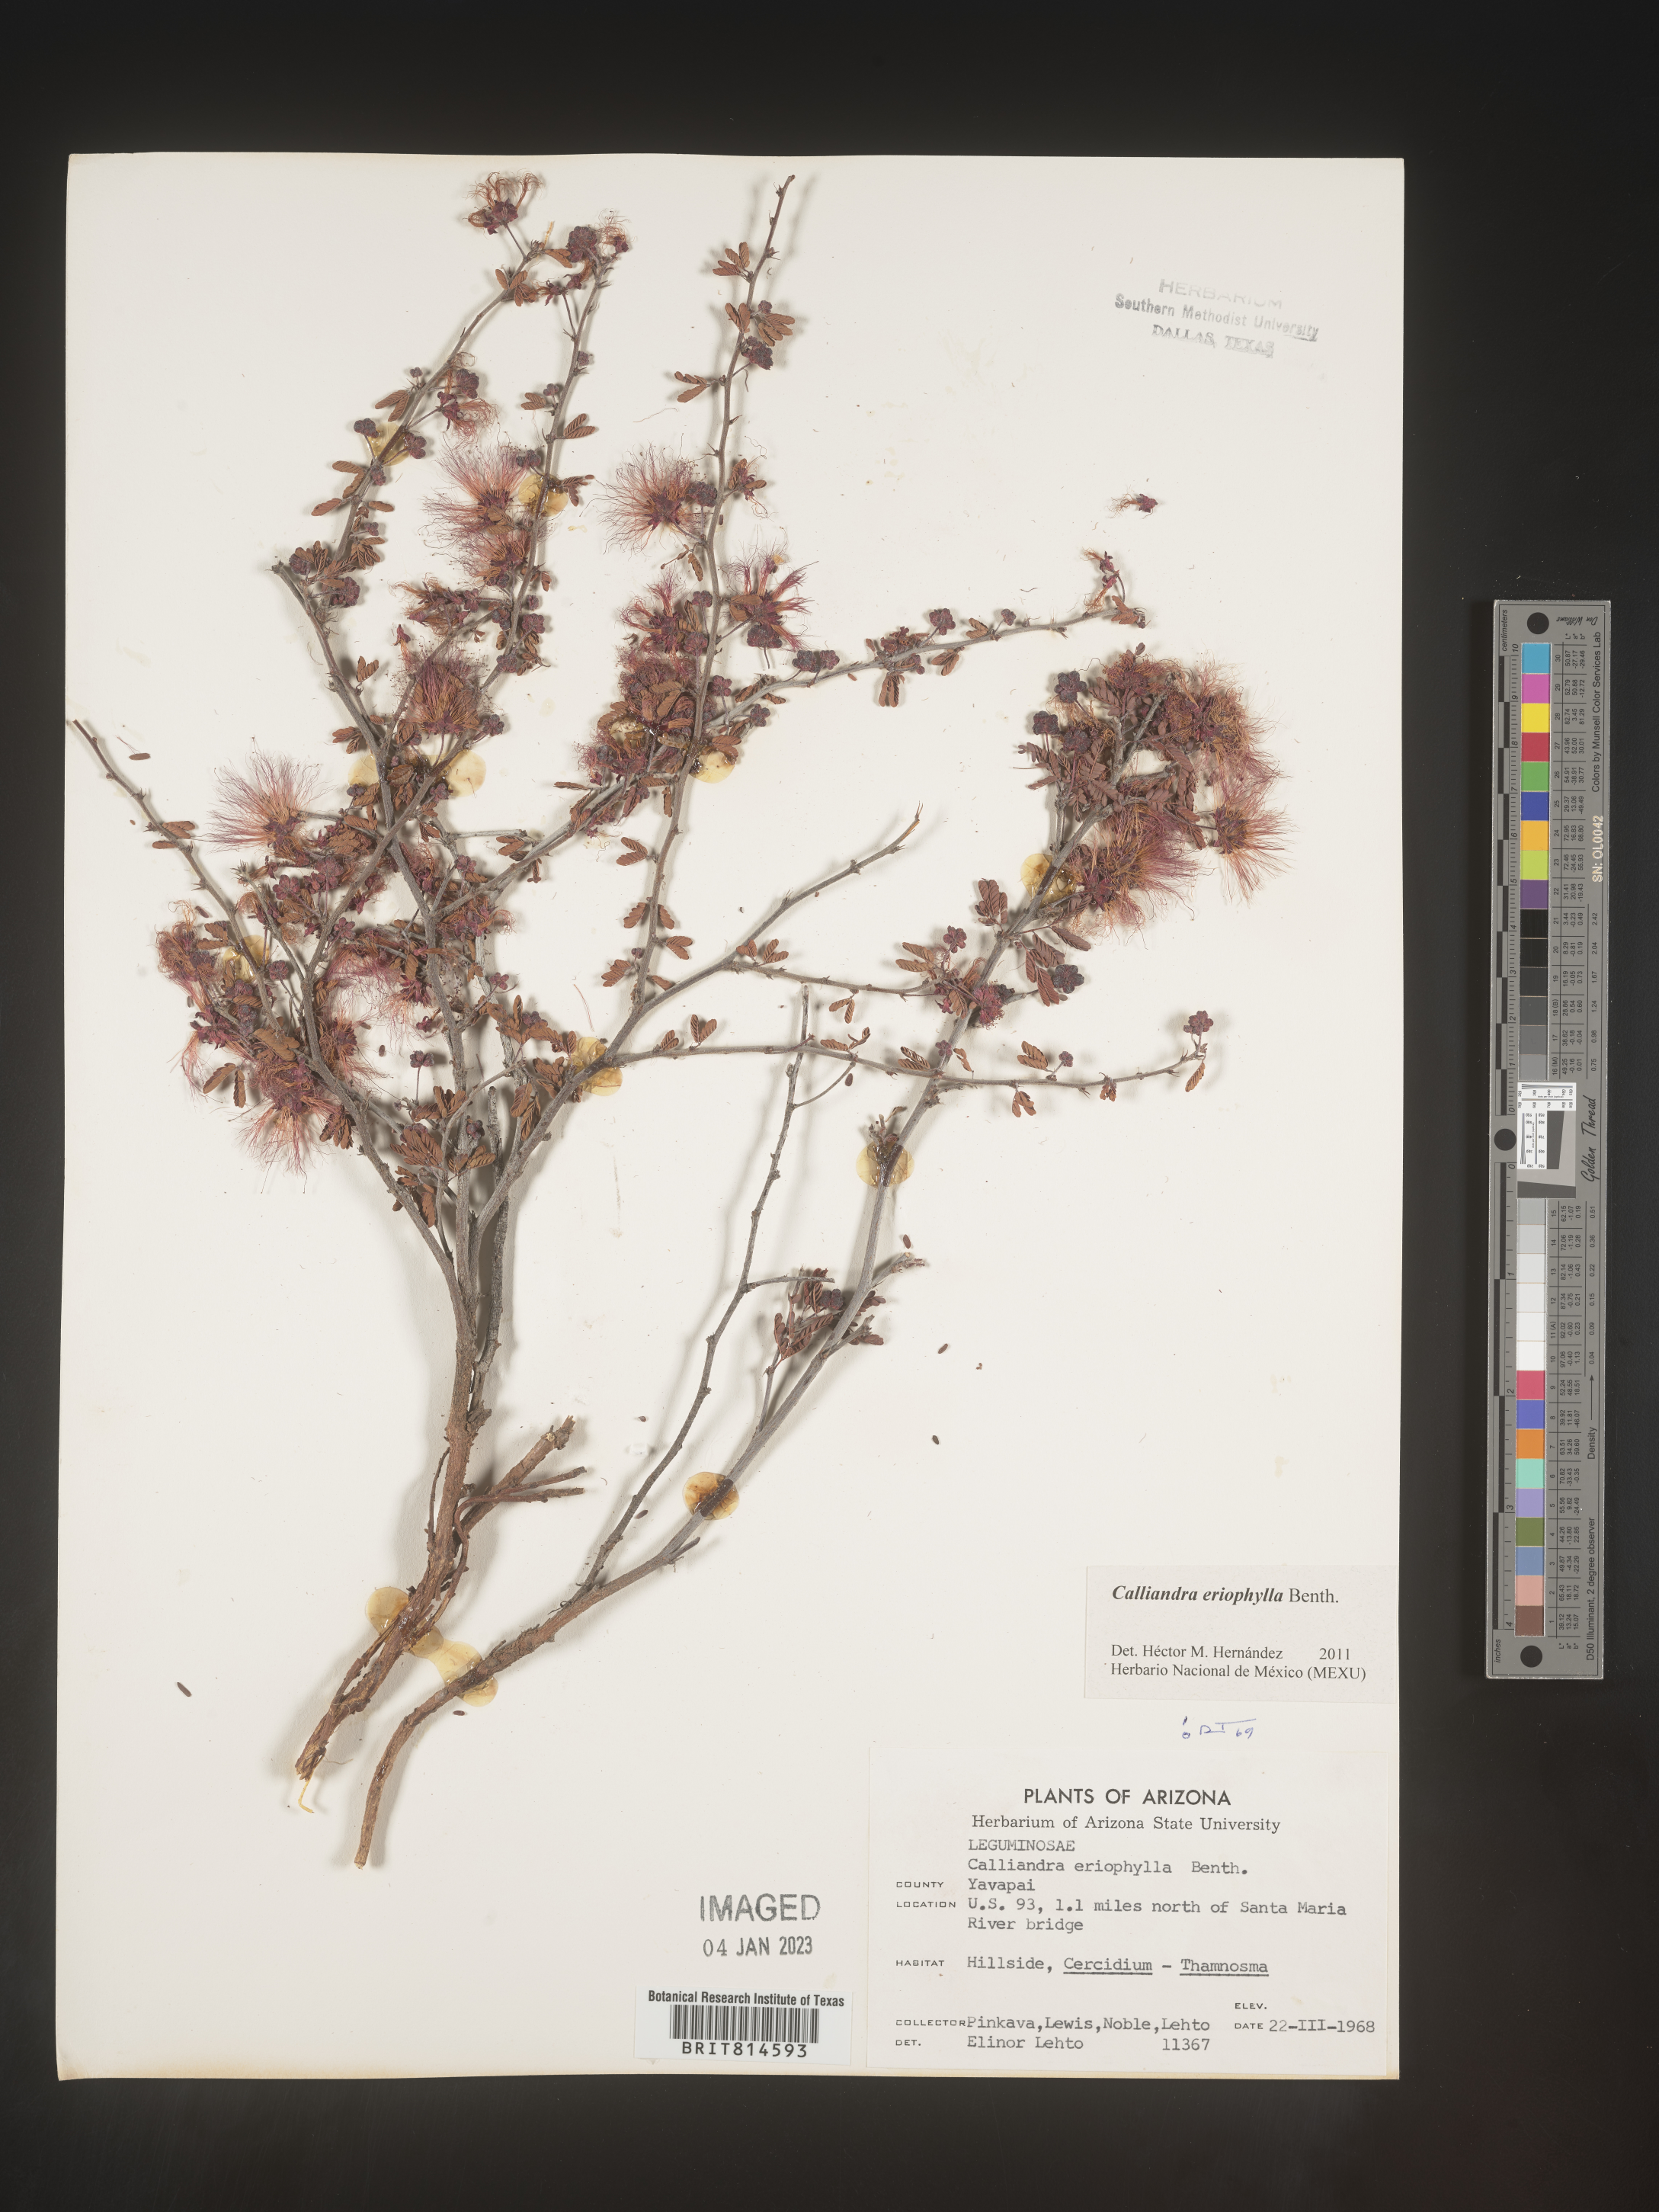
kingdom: Plantae
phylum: Tracheophyta
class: Magnoliopsida
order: Fabales
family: Fabaceae
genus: Calliandra
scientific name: Calliandra
